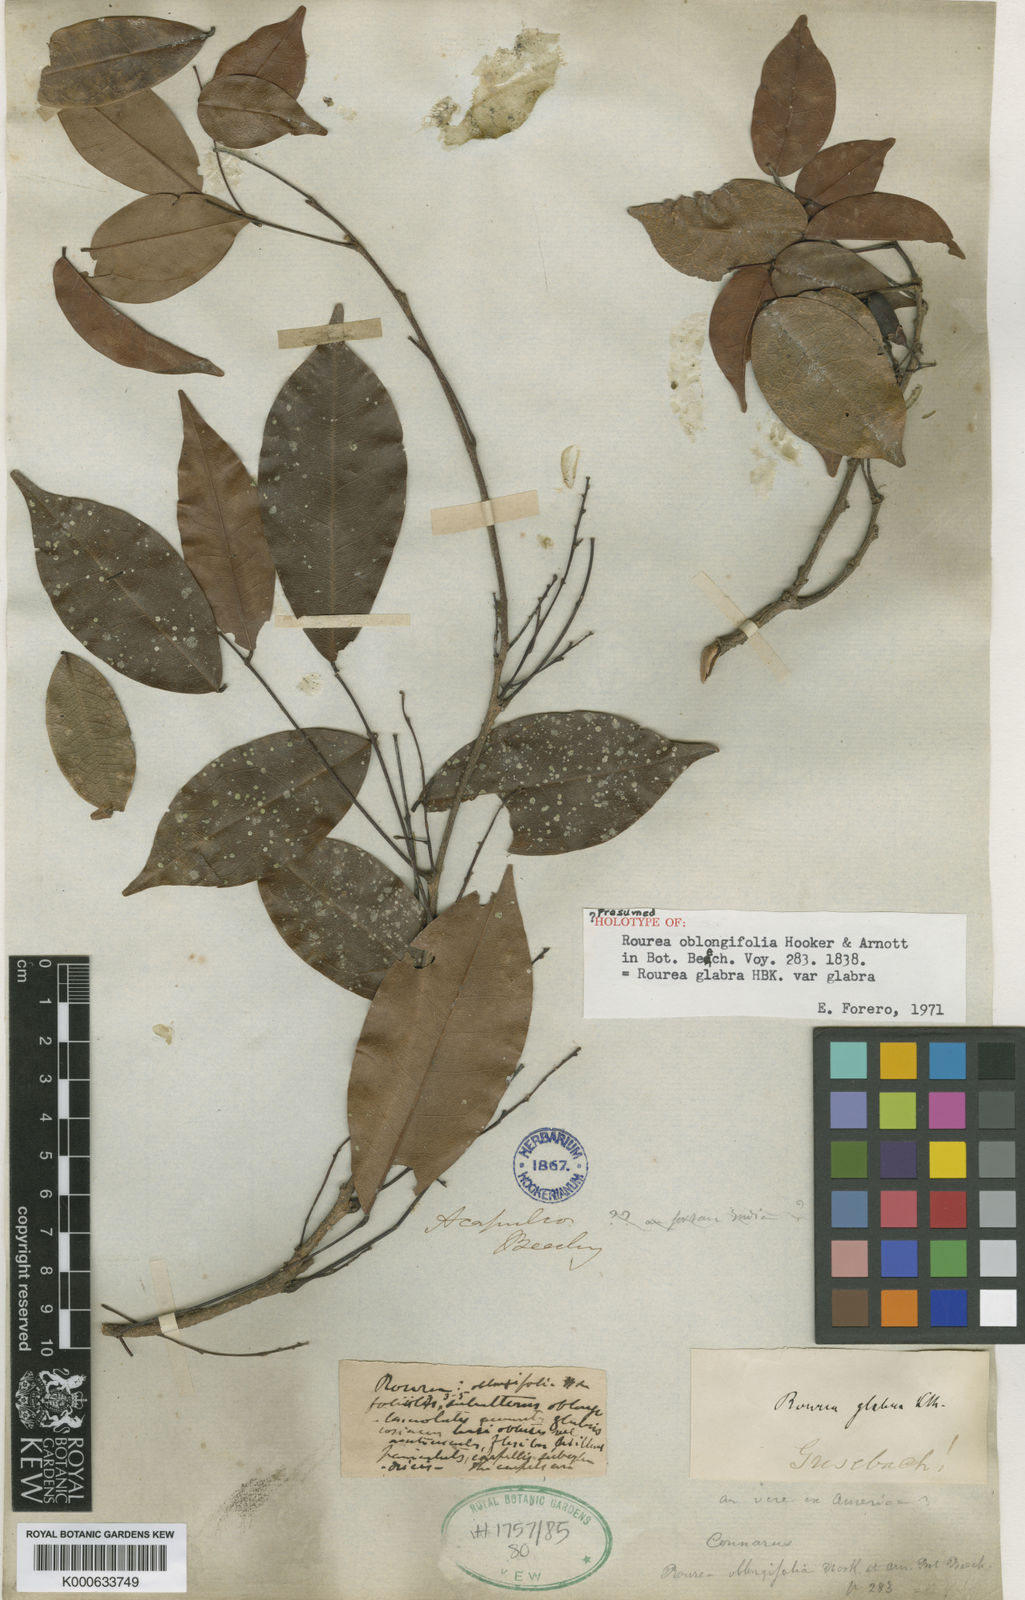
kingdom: Plantae
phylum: Tracheophyta
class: Magnoliopsida
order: Oxalidales
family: Connaraceae
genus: Rourea
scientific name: Rourea glabra
